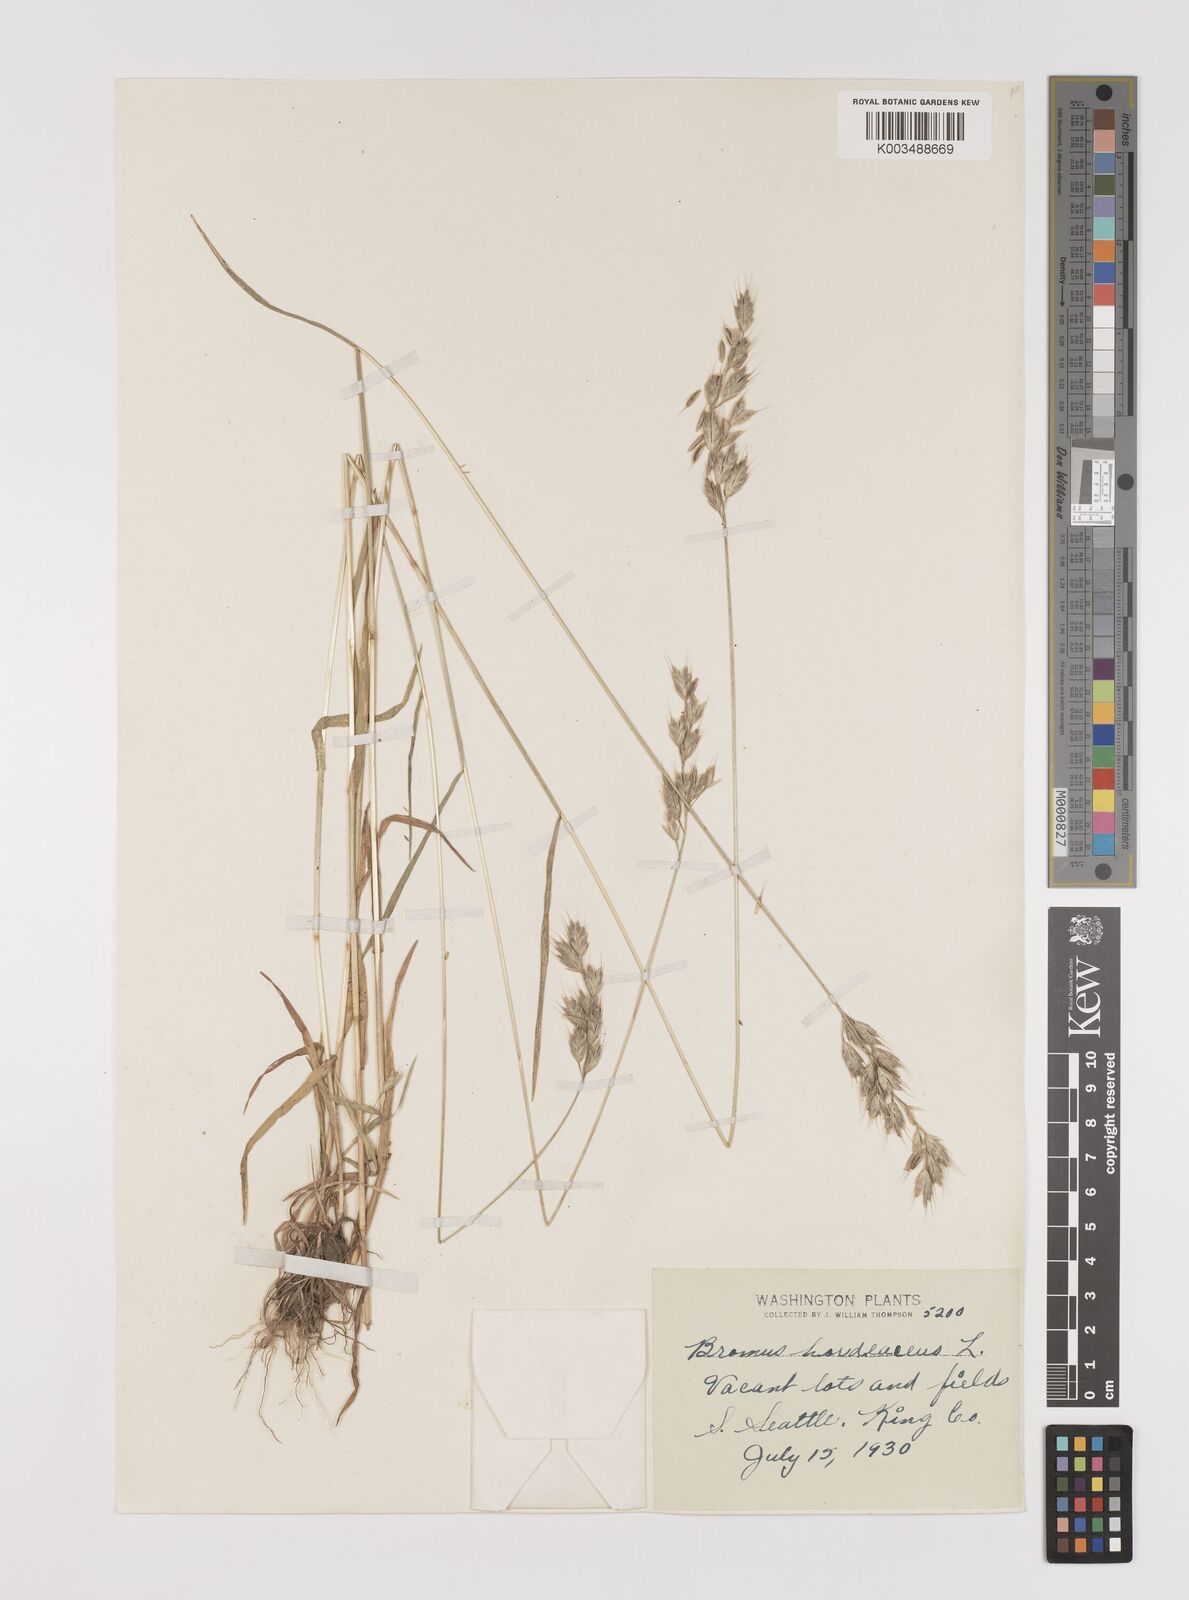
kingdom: Plantae
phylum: Tracheophyta
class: Liliopsida
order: Poales
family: Poaceae
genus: Bromus
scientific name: Bromus hordeaceus
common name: Soft brome
